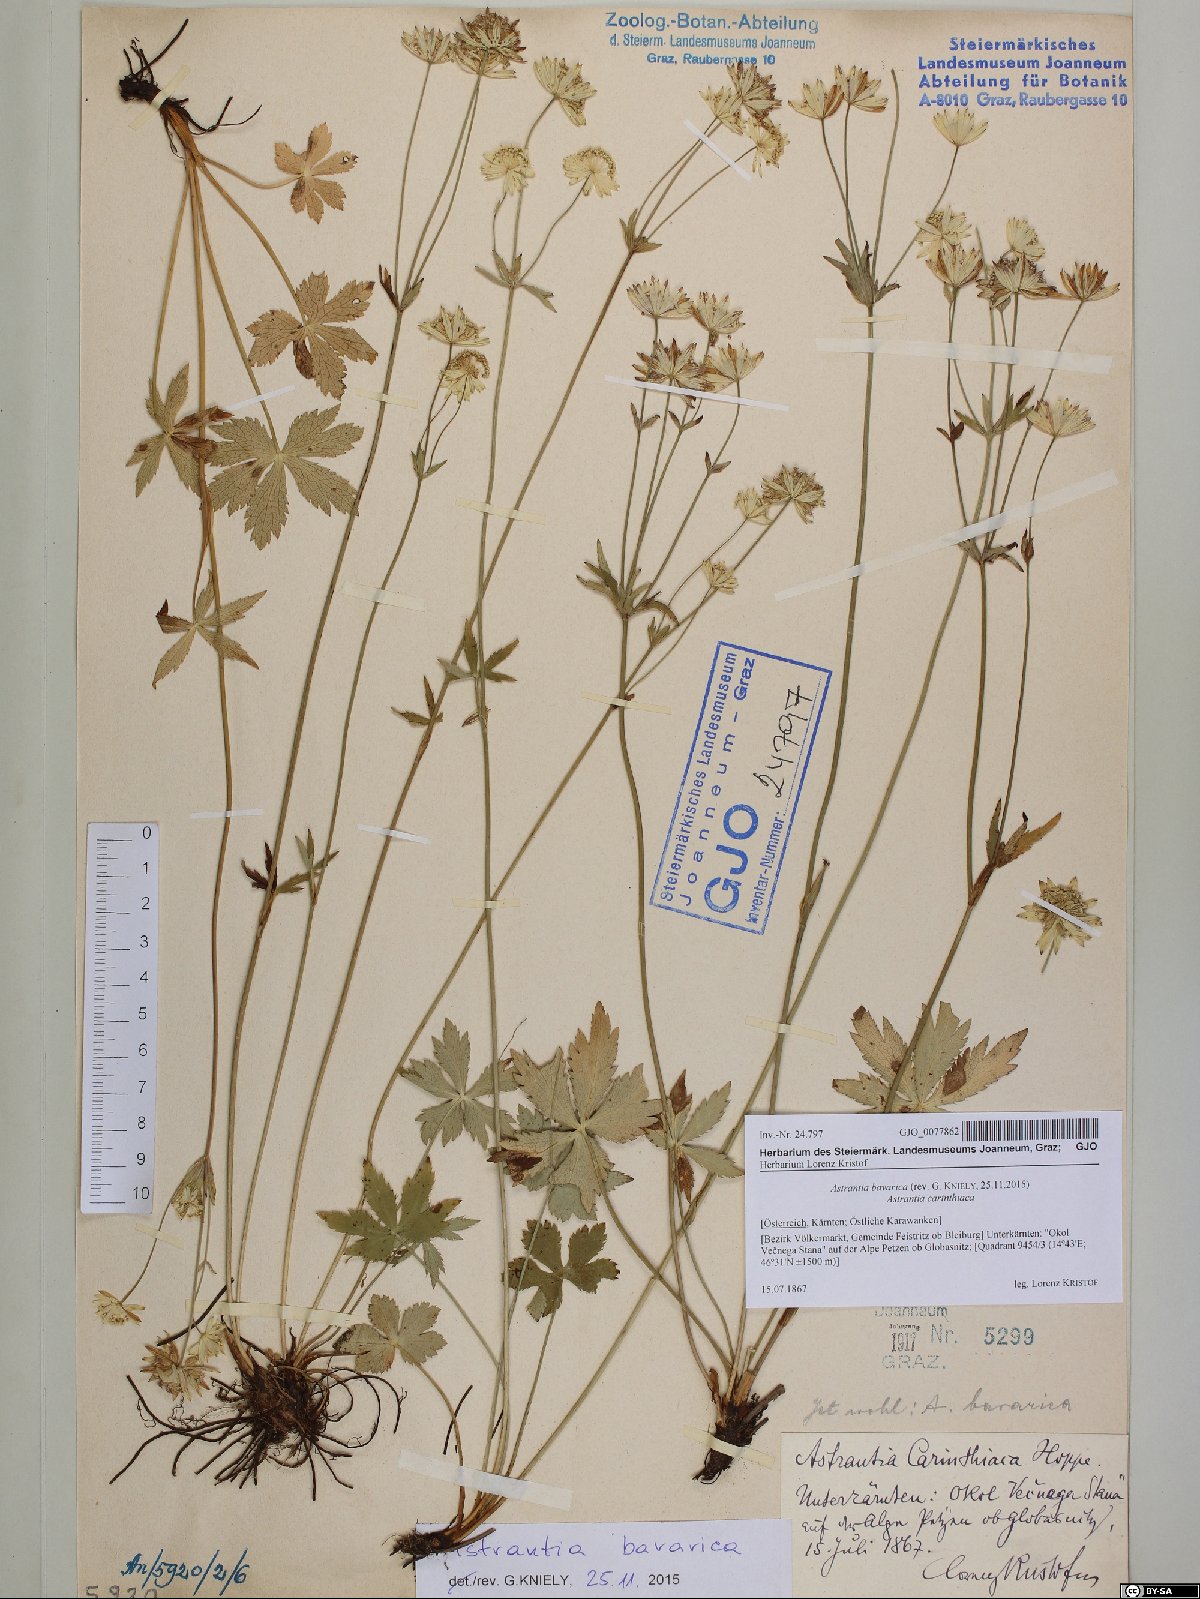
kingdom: Plantae
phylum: Tracheophyta
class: Magnoliopsida
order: Apiales
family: Apiaceae
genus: Astrantia
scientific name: Astrantia bavarica
